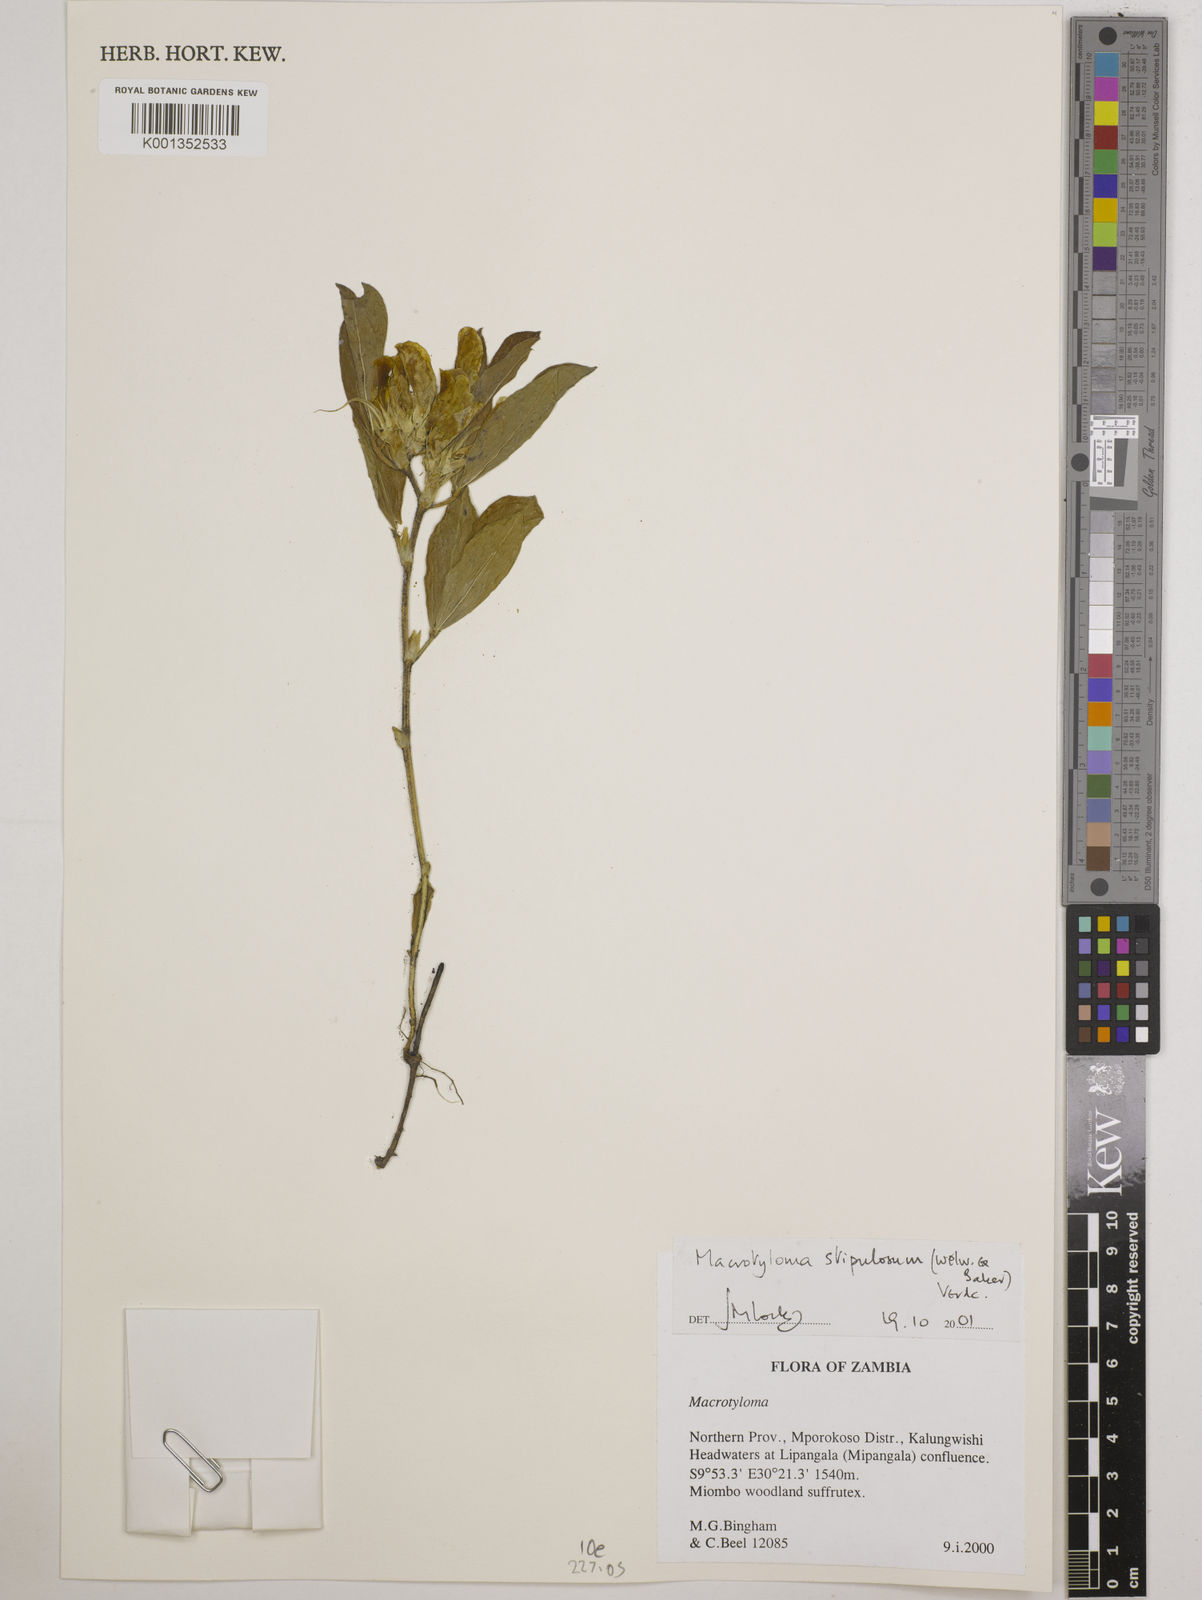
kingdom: Plantae
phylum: Tracheophyta
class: Magnoliopsida
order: Fabales
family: Fabaceae
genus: Macrotyloma
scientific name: Macrotyloma stipulosum
